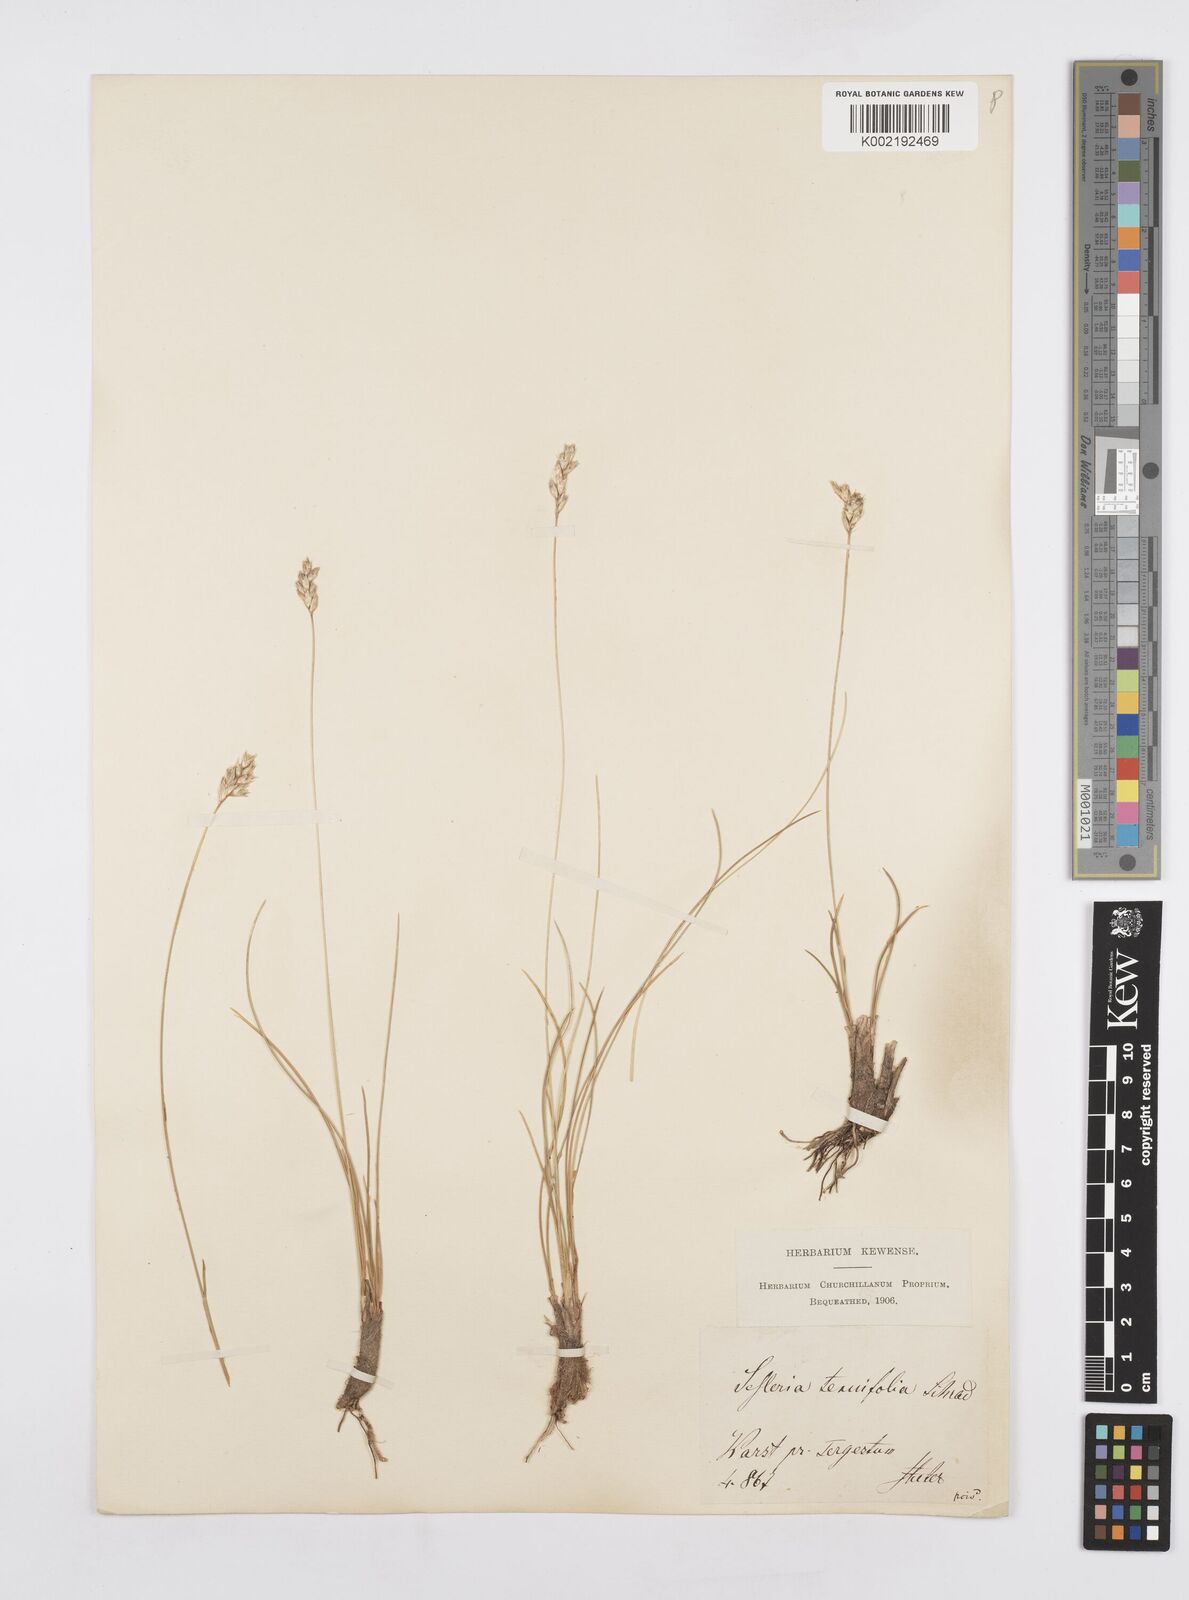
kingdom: Plantae
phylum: Tracheophyta
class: Liliopsida
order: Poales
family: Poaceae
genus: Sesleria
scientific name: Sesleria juncifolia
